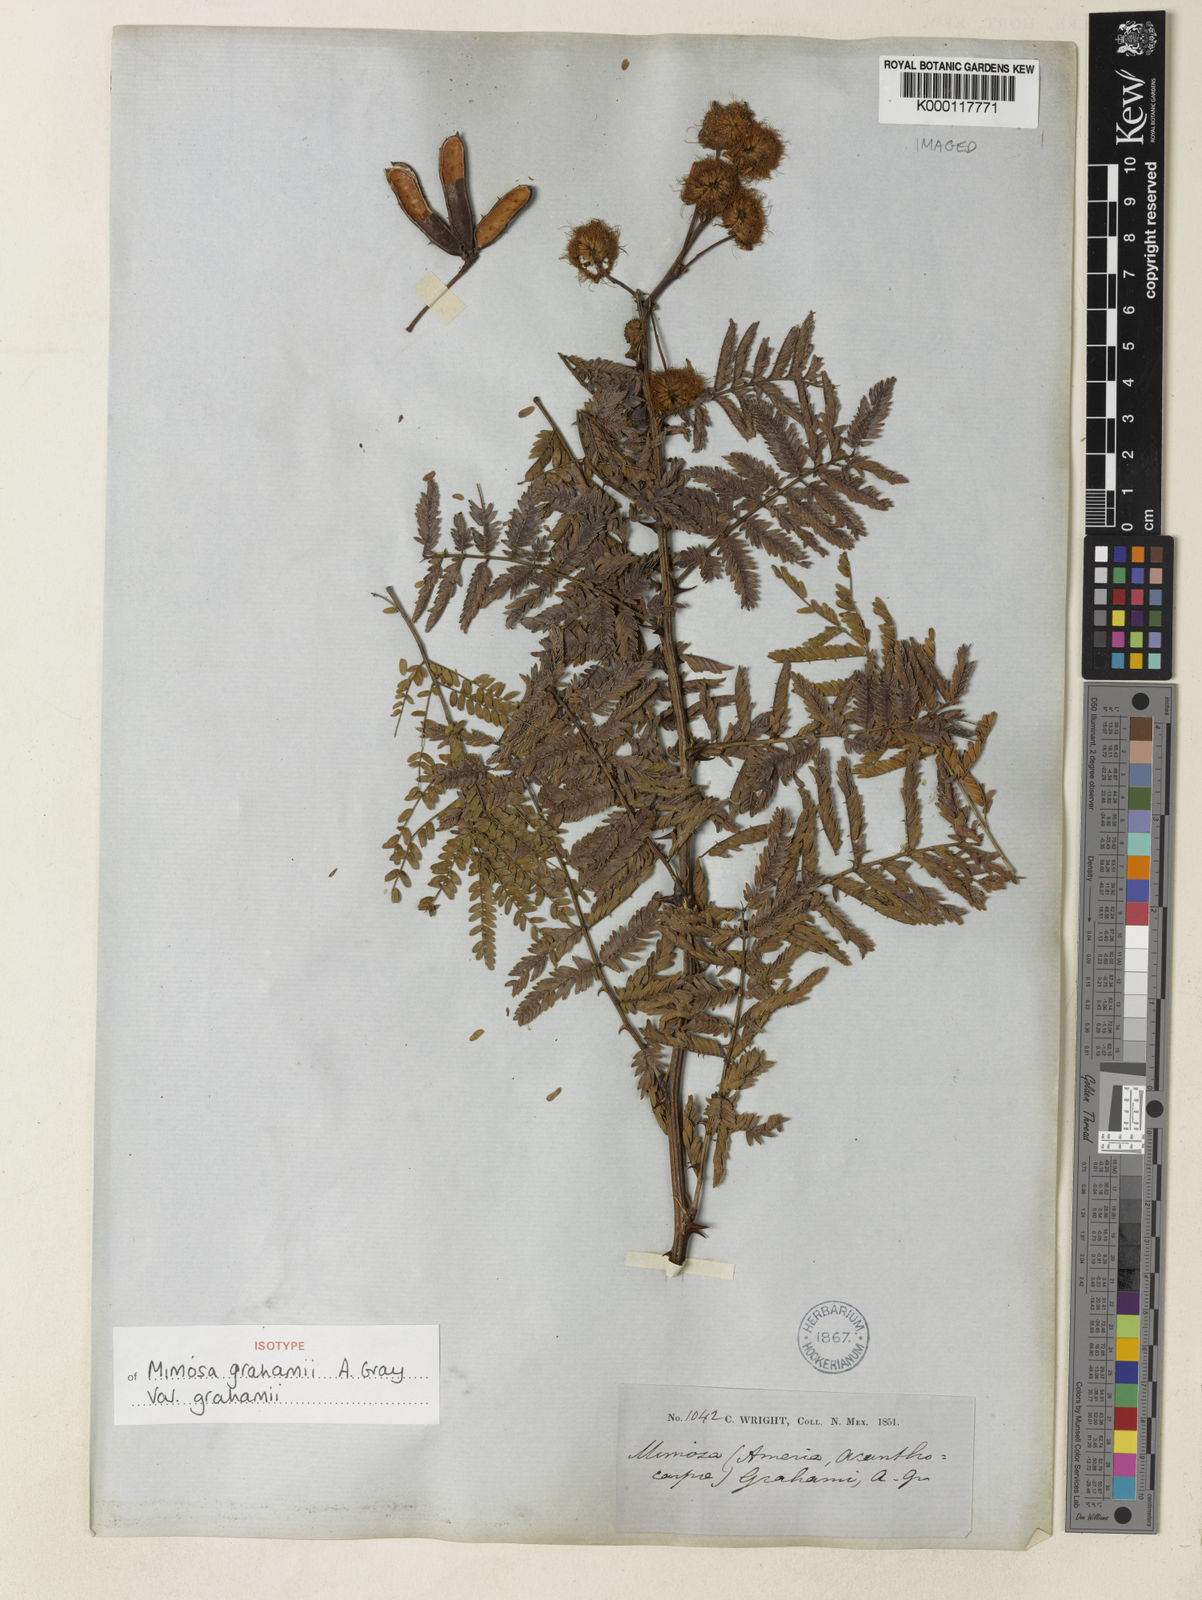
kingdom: Plantae
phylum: Tracheophyta
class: Magnoliopsida
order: Fabales
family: Fabaceae
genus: Mimosa
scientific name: Mimosa grahamii
